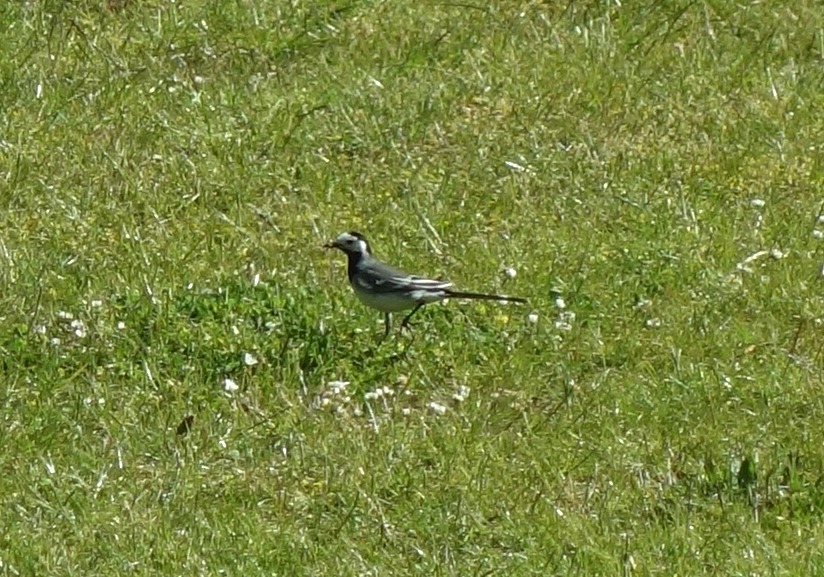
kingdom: Animalia
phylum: Chordata
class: Aves
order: Passeriformes
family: Motacillidae
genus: Motacilla
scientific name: Motacilla alba
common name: Hvid vipstjert
